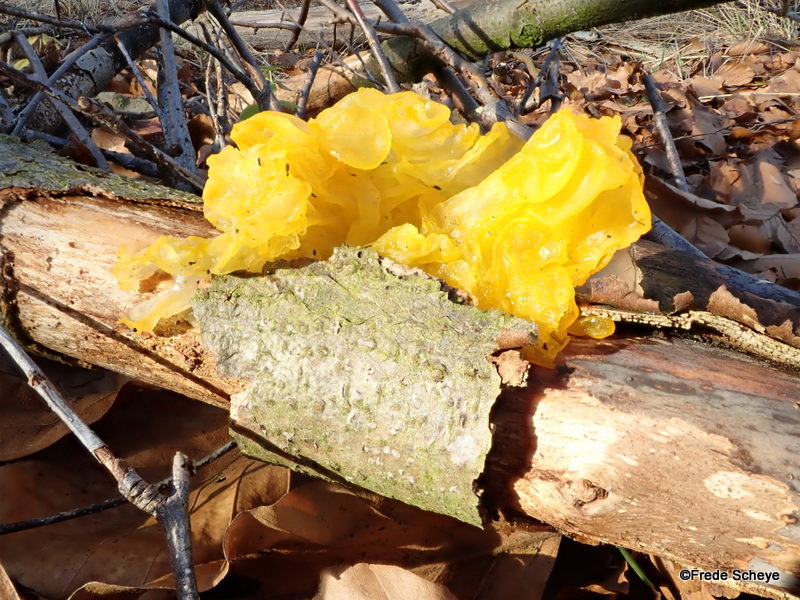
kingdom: Fungi
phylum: Basidiomycota
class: Tremellomycetes
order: Tremellales
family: Tremellaceae
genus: Tremella
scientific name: Tremella mesenterica
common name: gul bævresvamp
